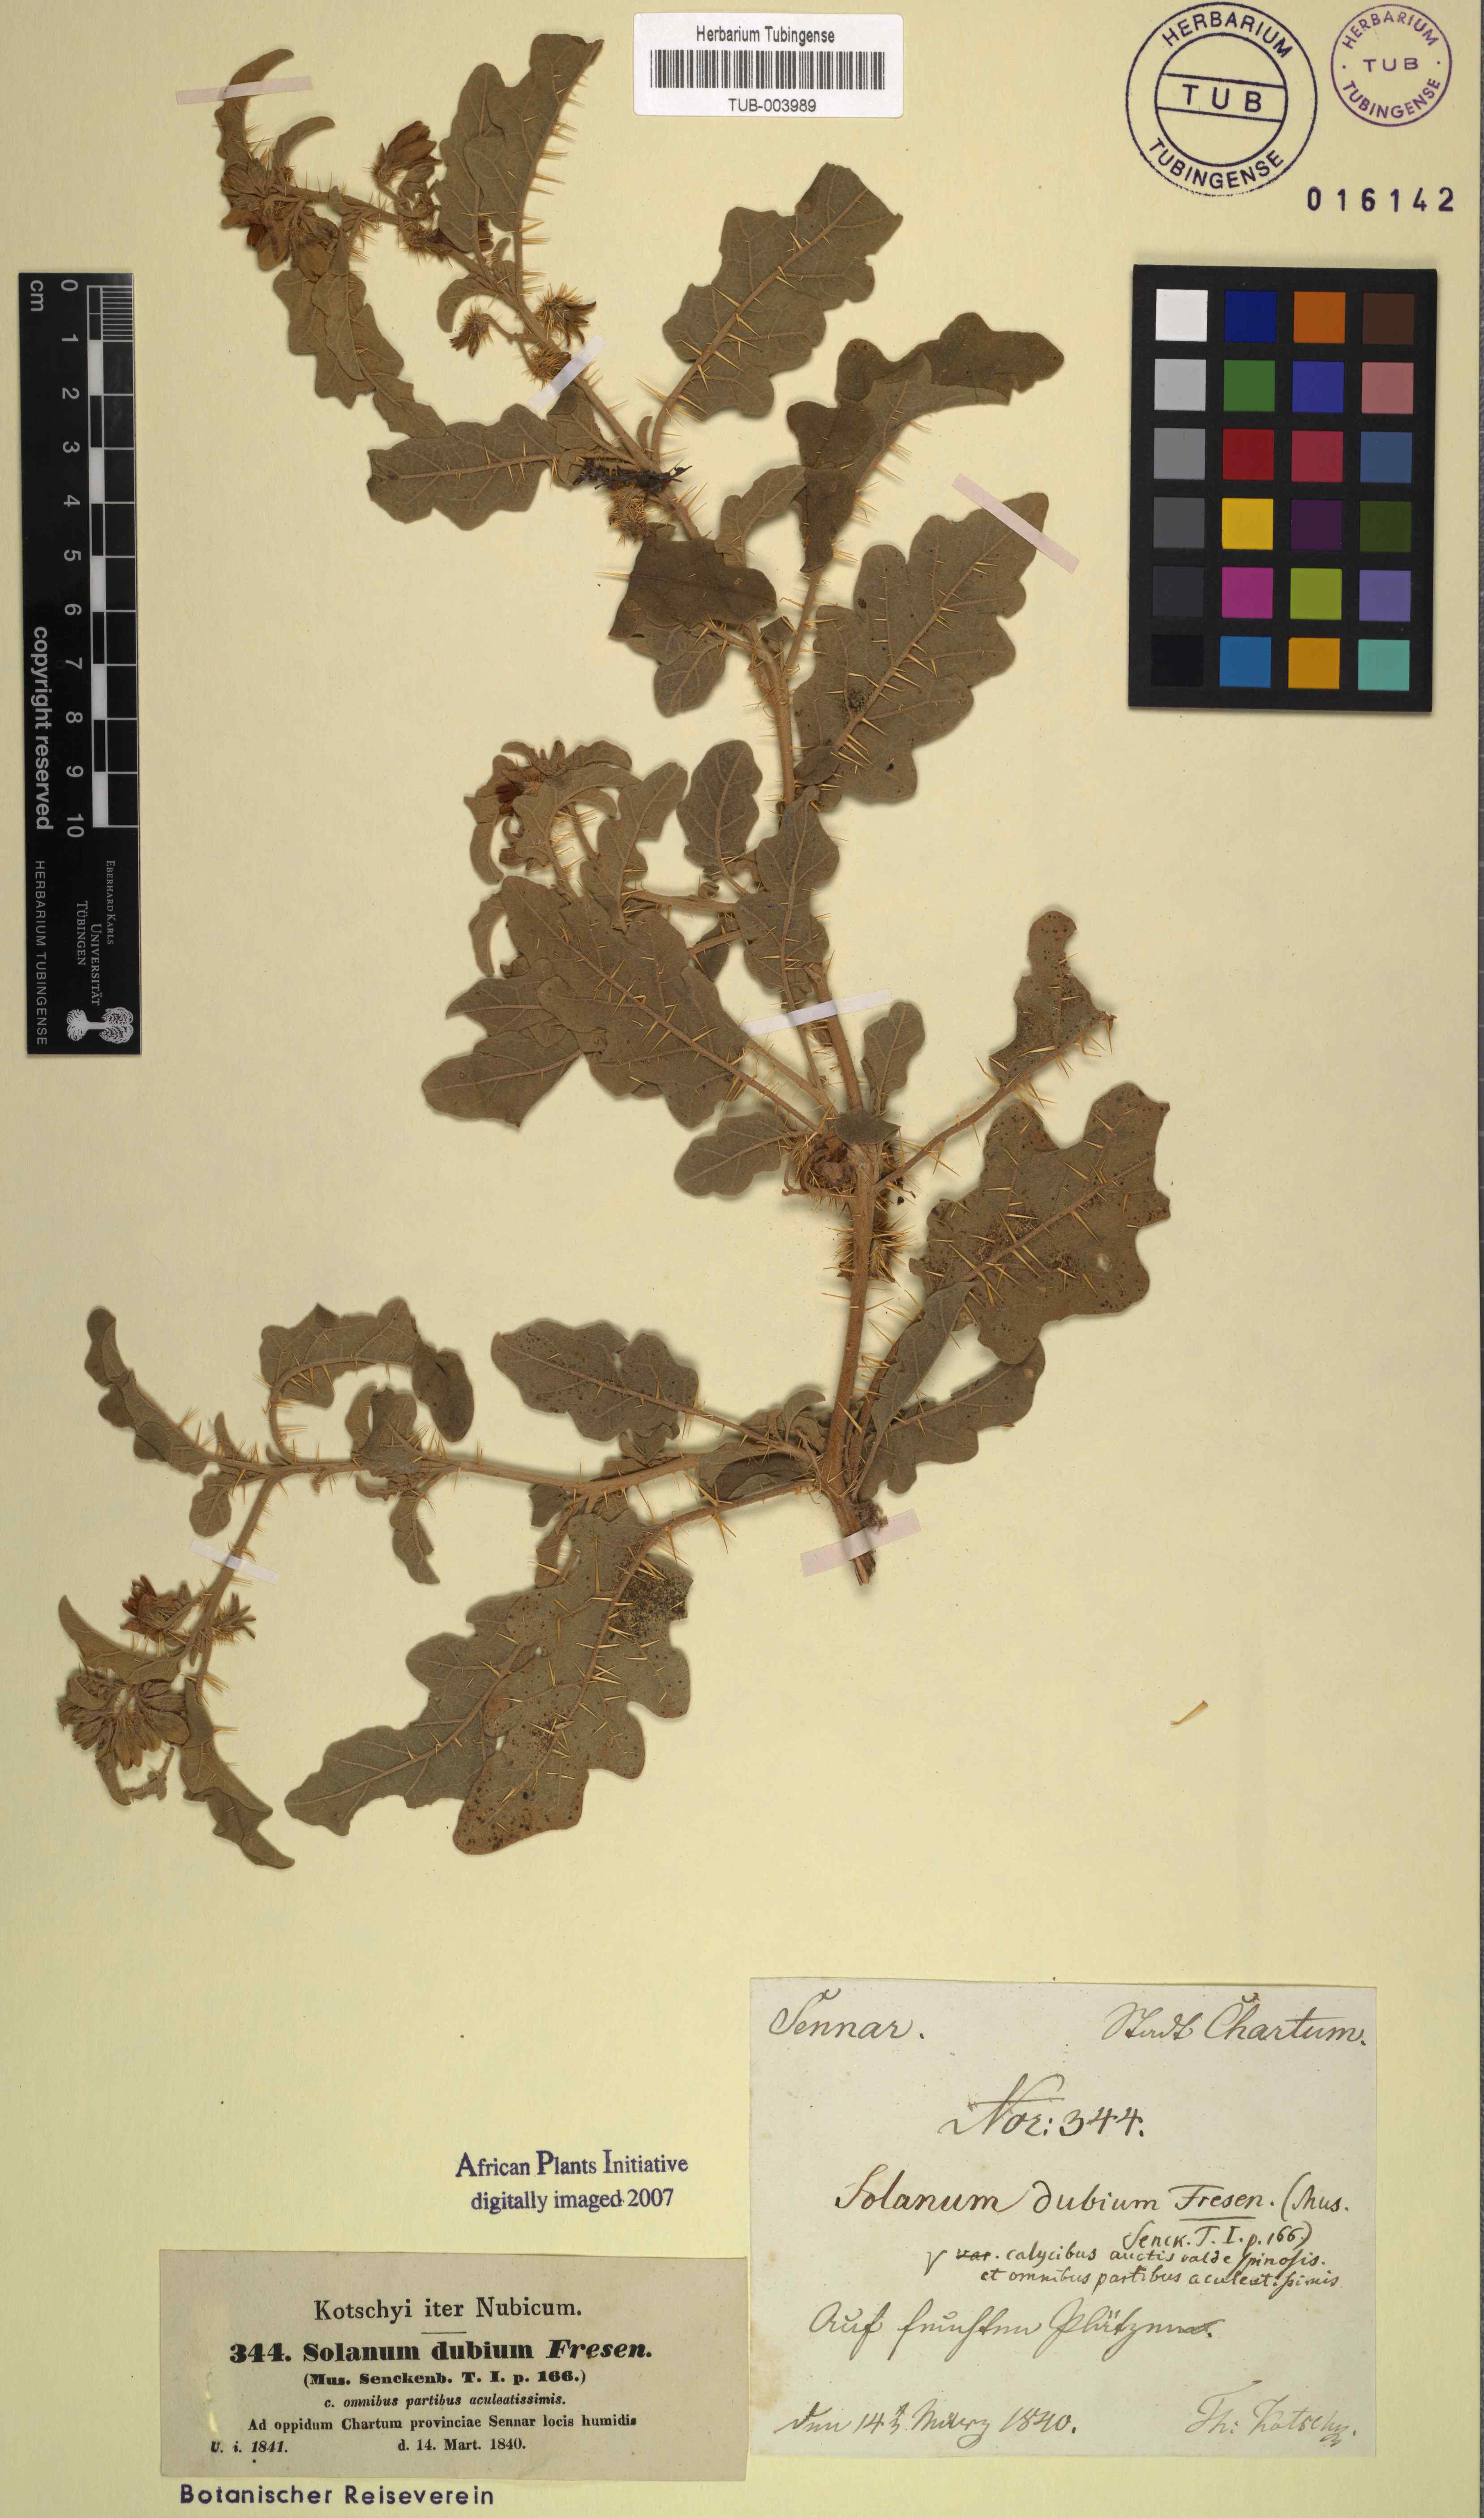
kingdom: Plantae
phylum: Tracheophyta
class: Magnoliopsida
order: Solanales
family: Solanaceae
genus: Solanum
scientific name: Solanum coagulans
